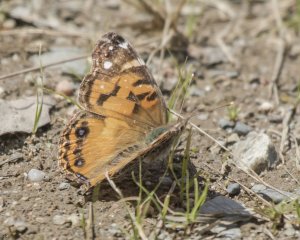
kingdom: Animalia
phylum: Arthropoda
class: Insecta
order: Lepidoptera
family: Nymphalidae
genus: Vanessa
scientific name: Vanessa virginiensis
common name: American Lady
